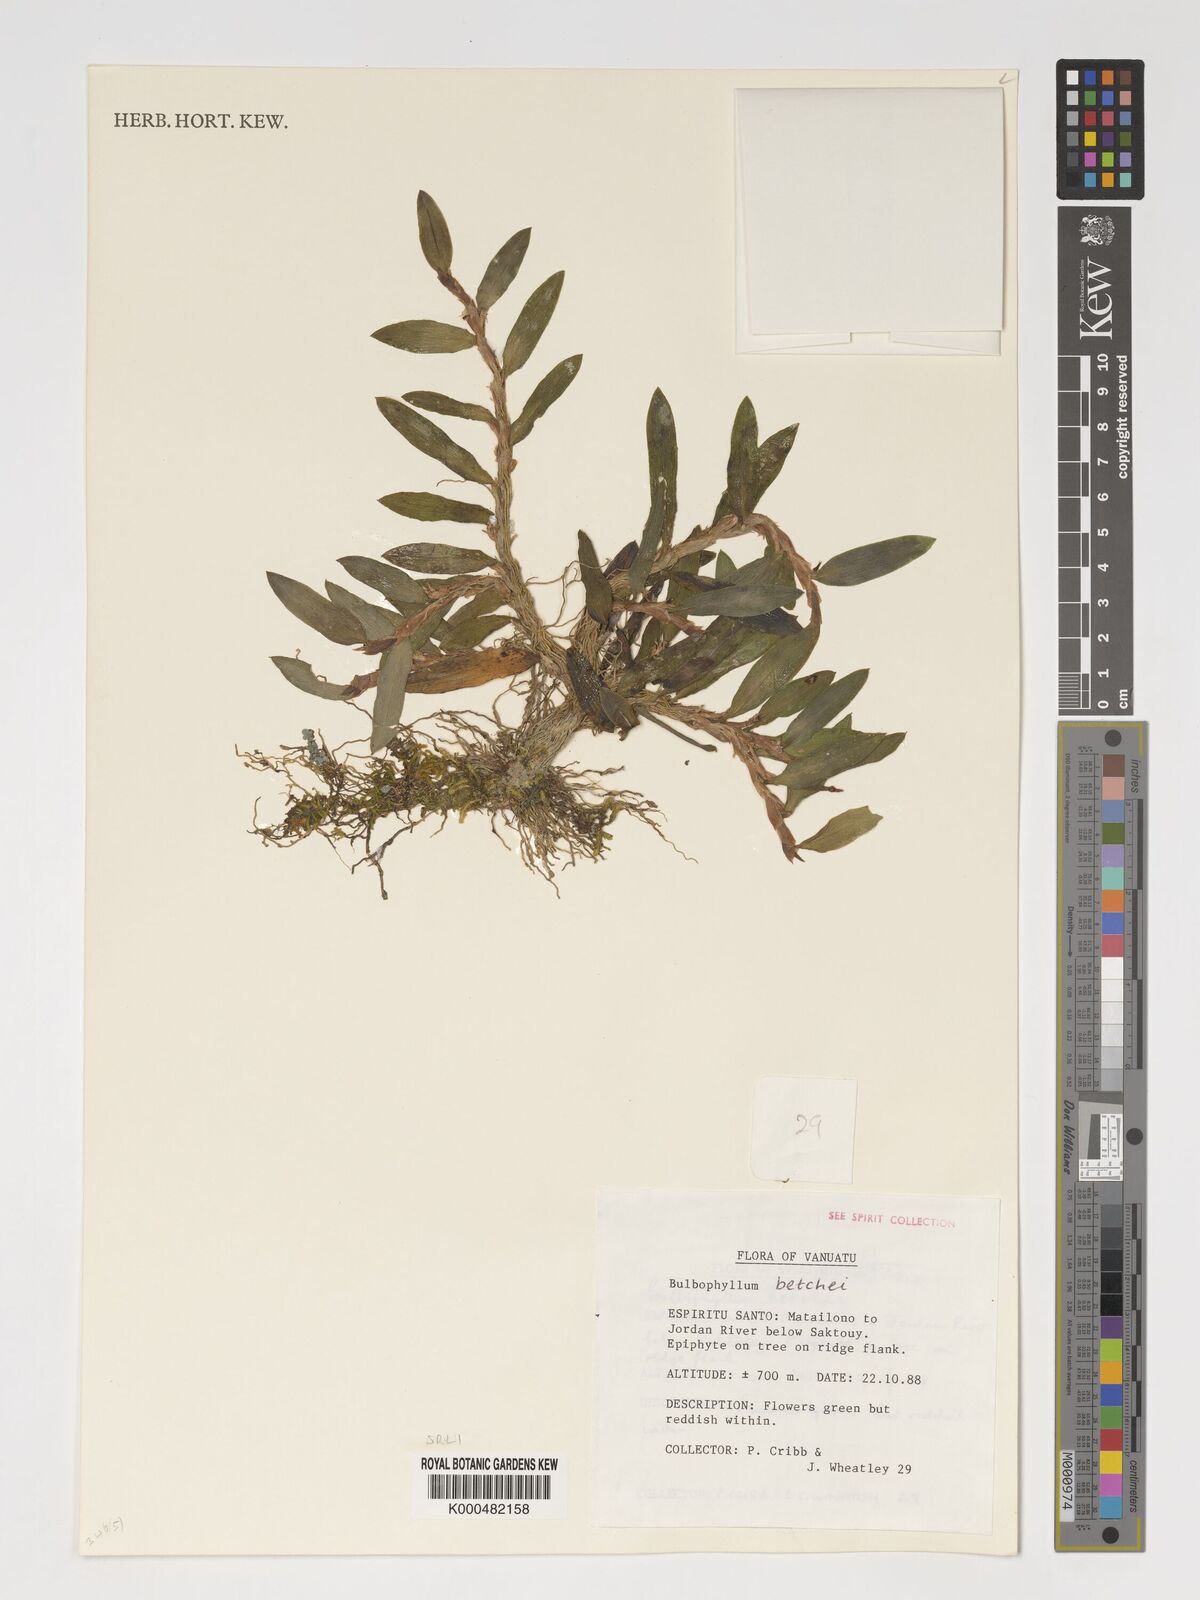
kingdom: Plantae
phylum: Tracheophyta
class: Liliopsida
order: Asparagales
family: Orchidaceae
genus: Bulbophyllum
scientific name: Bulbophyllum betchei
